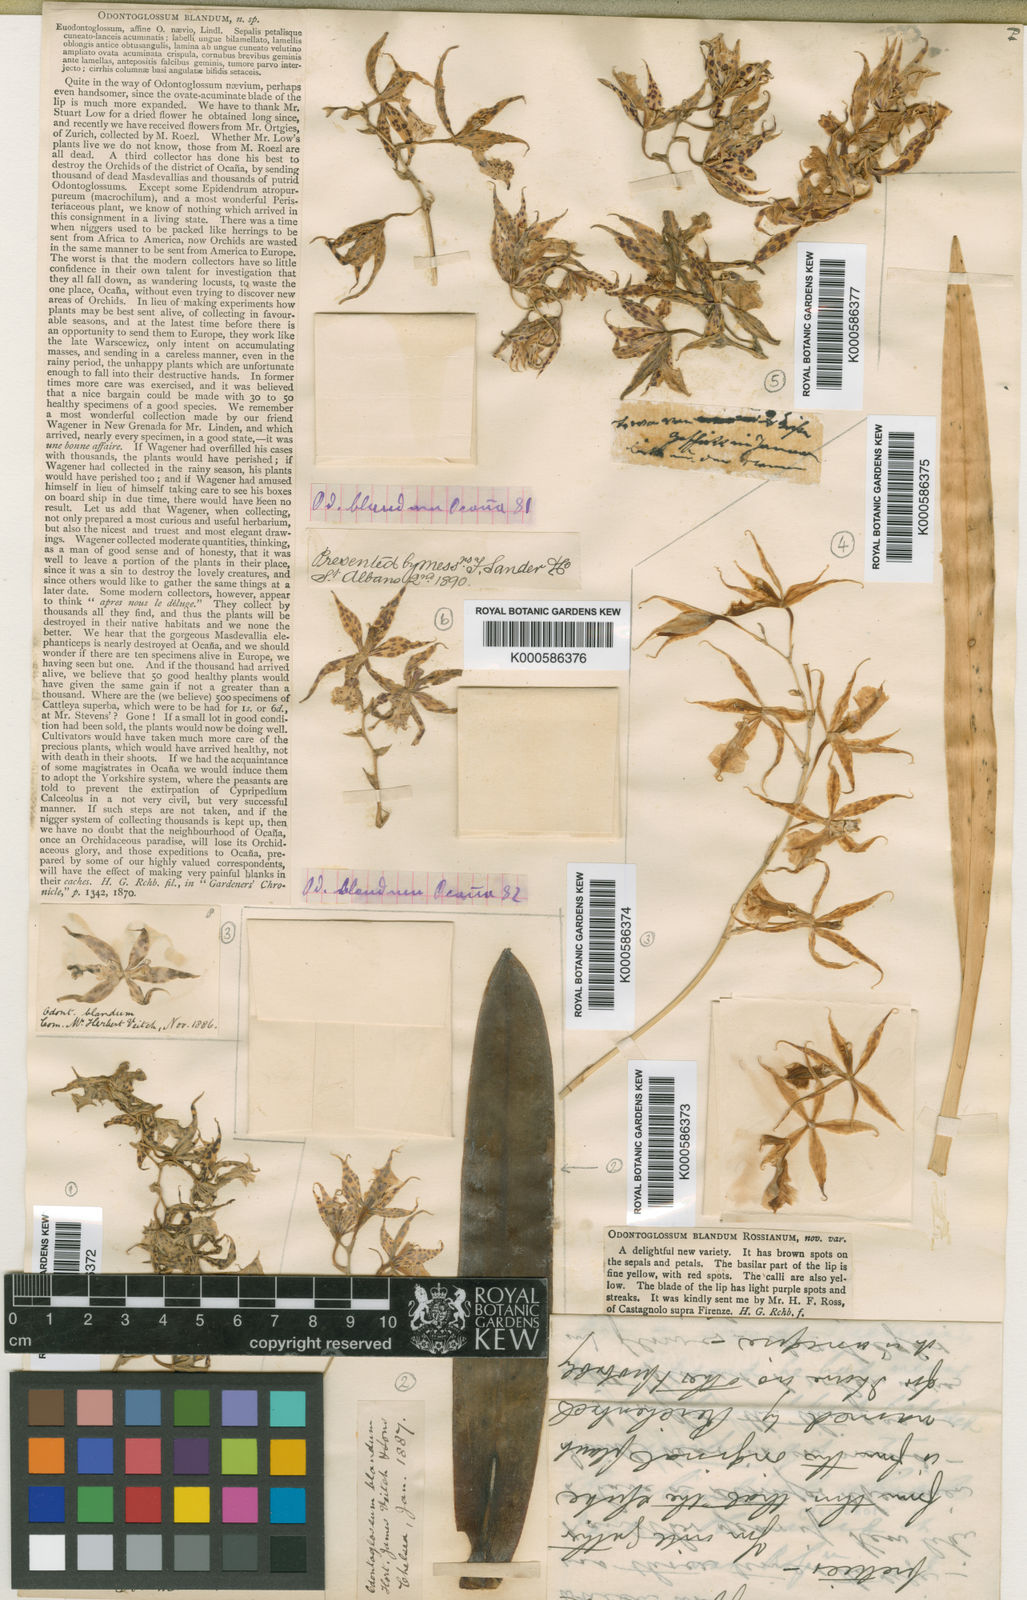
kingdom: Plantae
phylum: Tracheophyta
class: Liliopsida
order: Asparagales
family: Orchidaceae
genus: Oncidium
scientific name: Oncidium blandum
